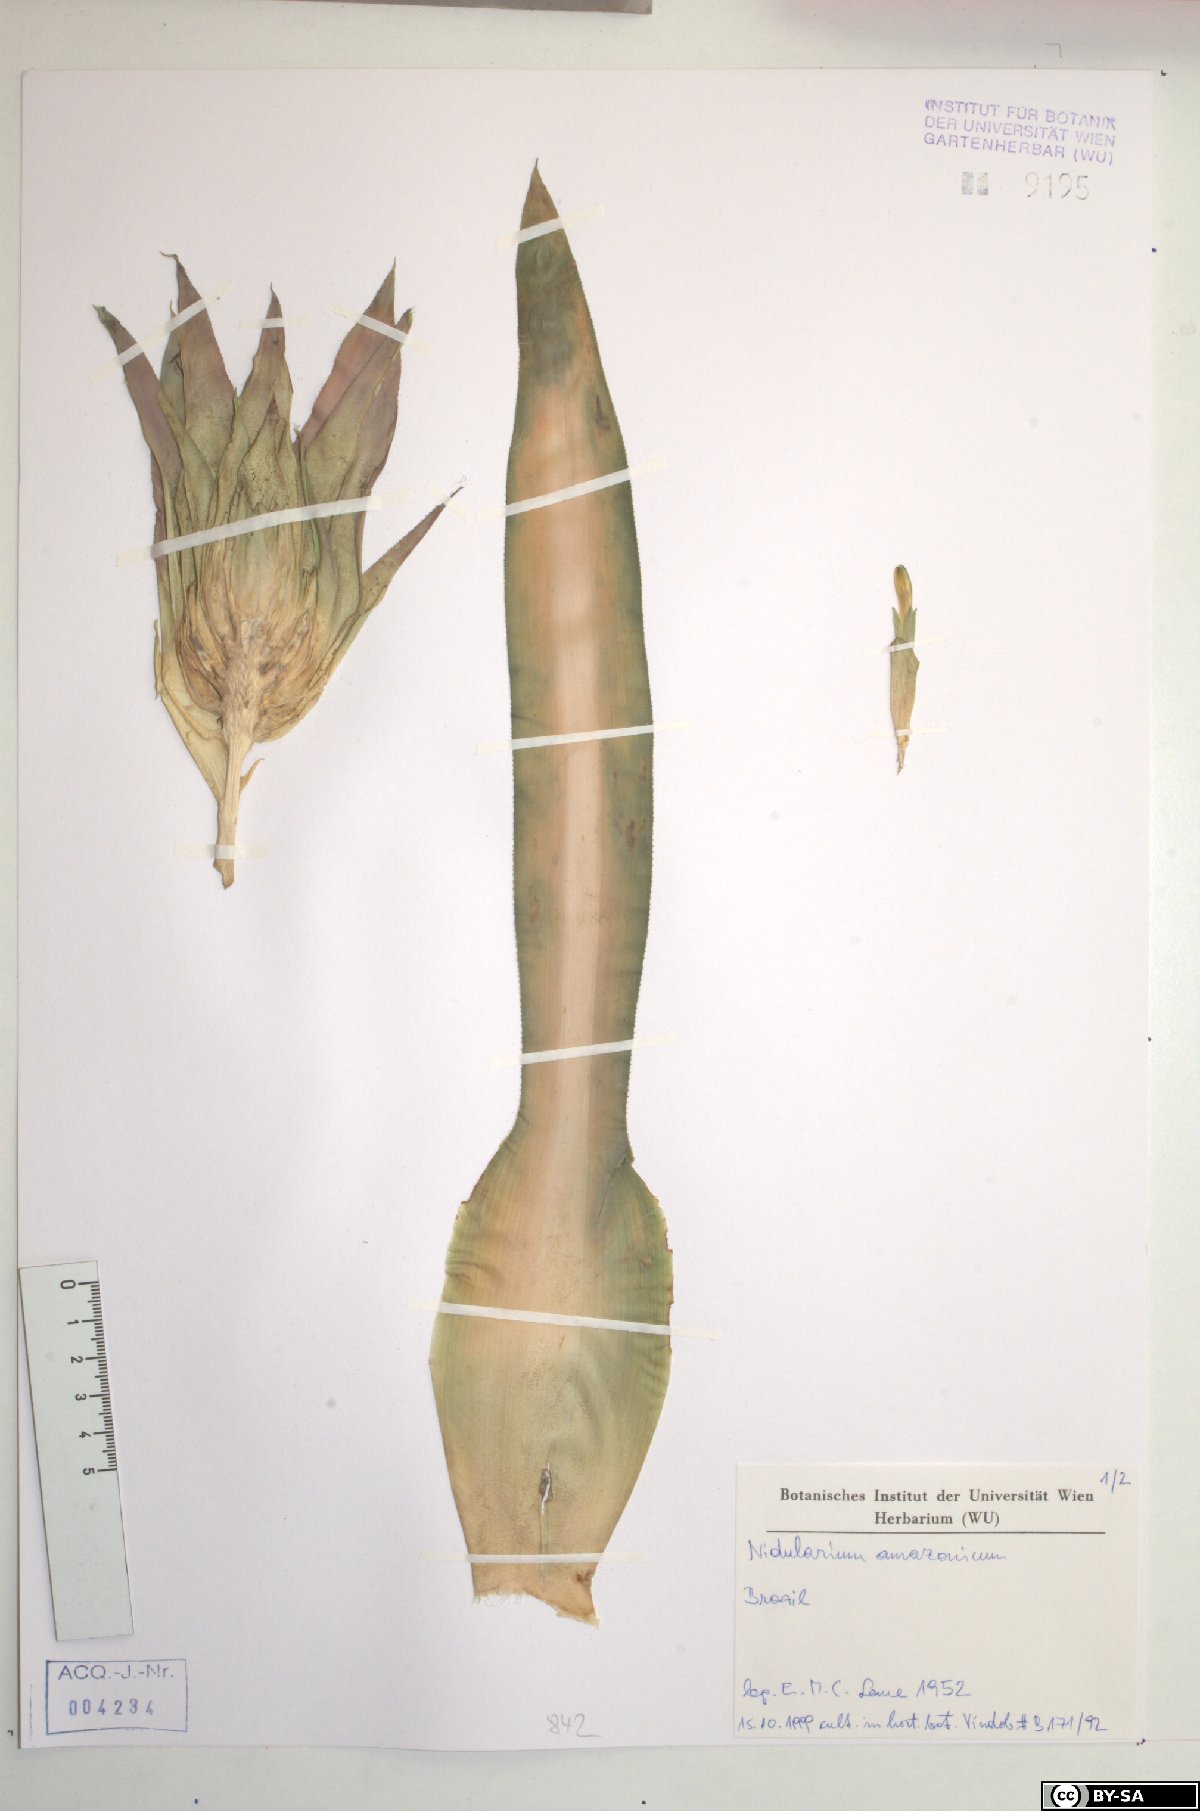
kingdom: Plantae
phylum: Tracheophyta
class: Liliopsida
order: Poales
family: Bromeliaceae
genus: Nidularium
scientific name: Nidularium amazonicum
